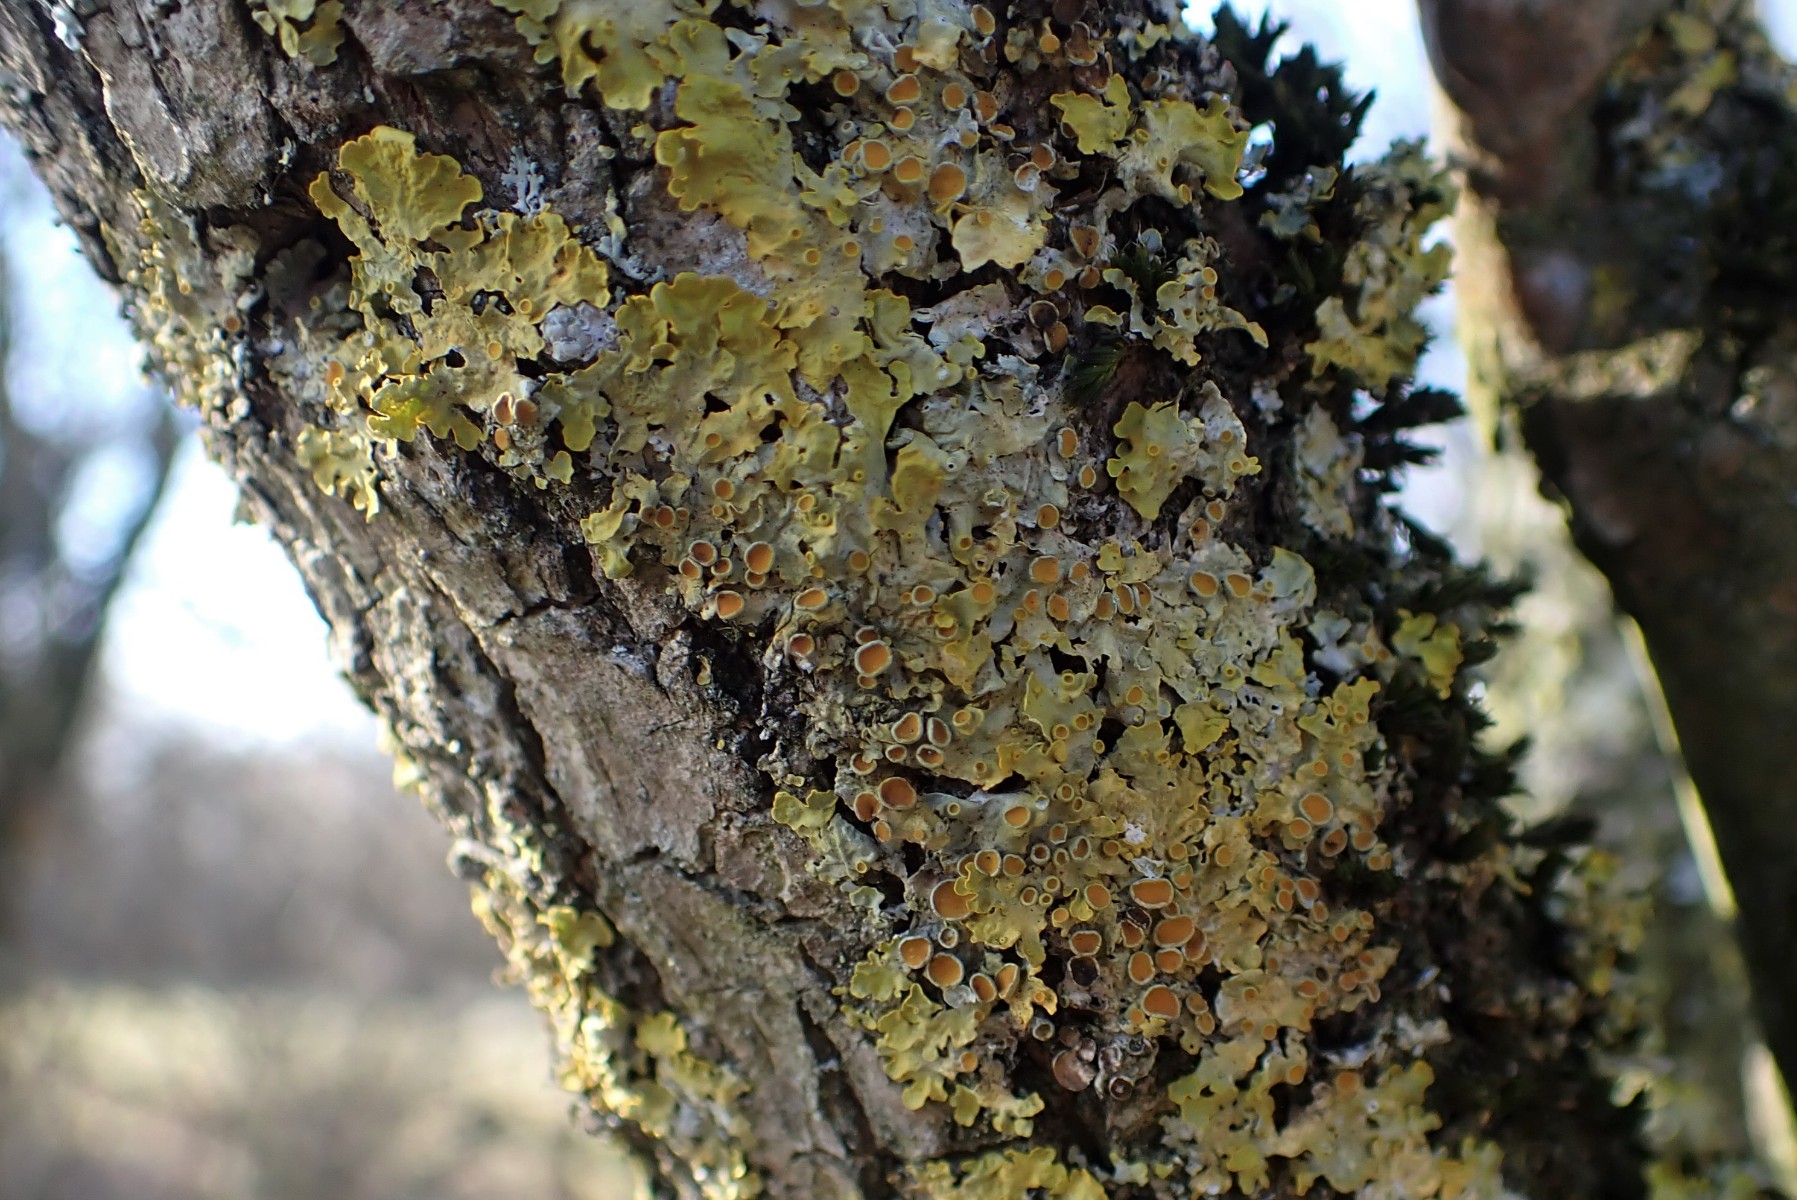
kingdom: Fungi
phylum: Ascomycota
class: Lecanoromycetes
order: Teloschistales
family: Teloschistaceae
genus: Xanthoria
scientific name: Xanthoria parietina
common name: almindelig væggelav
